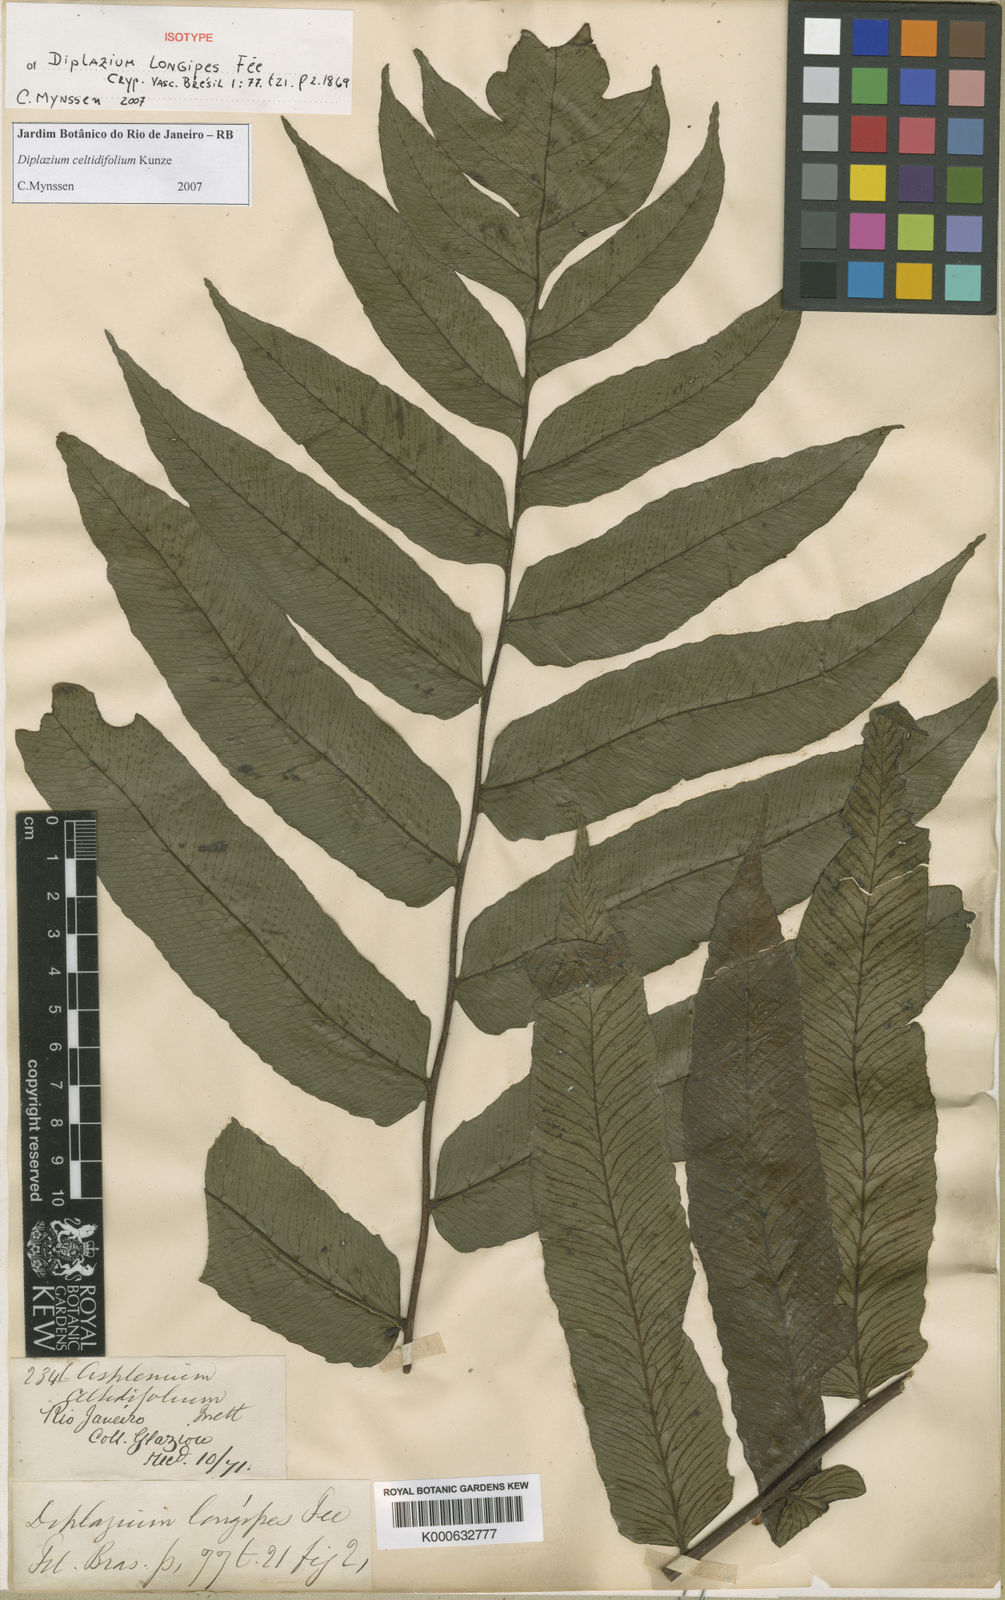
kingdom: Plantae
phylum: Tracheophyta
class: Polypodiopsida
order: Polypodiales
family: Athyriaceae
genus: Diplazium
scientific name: Diplazium celtidifolium
